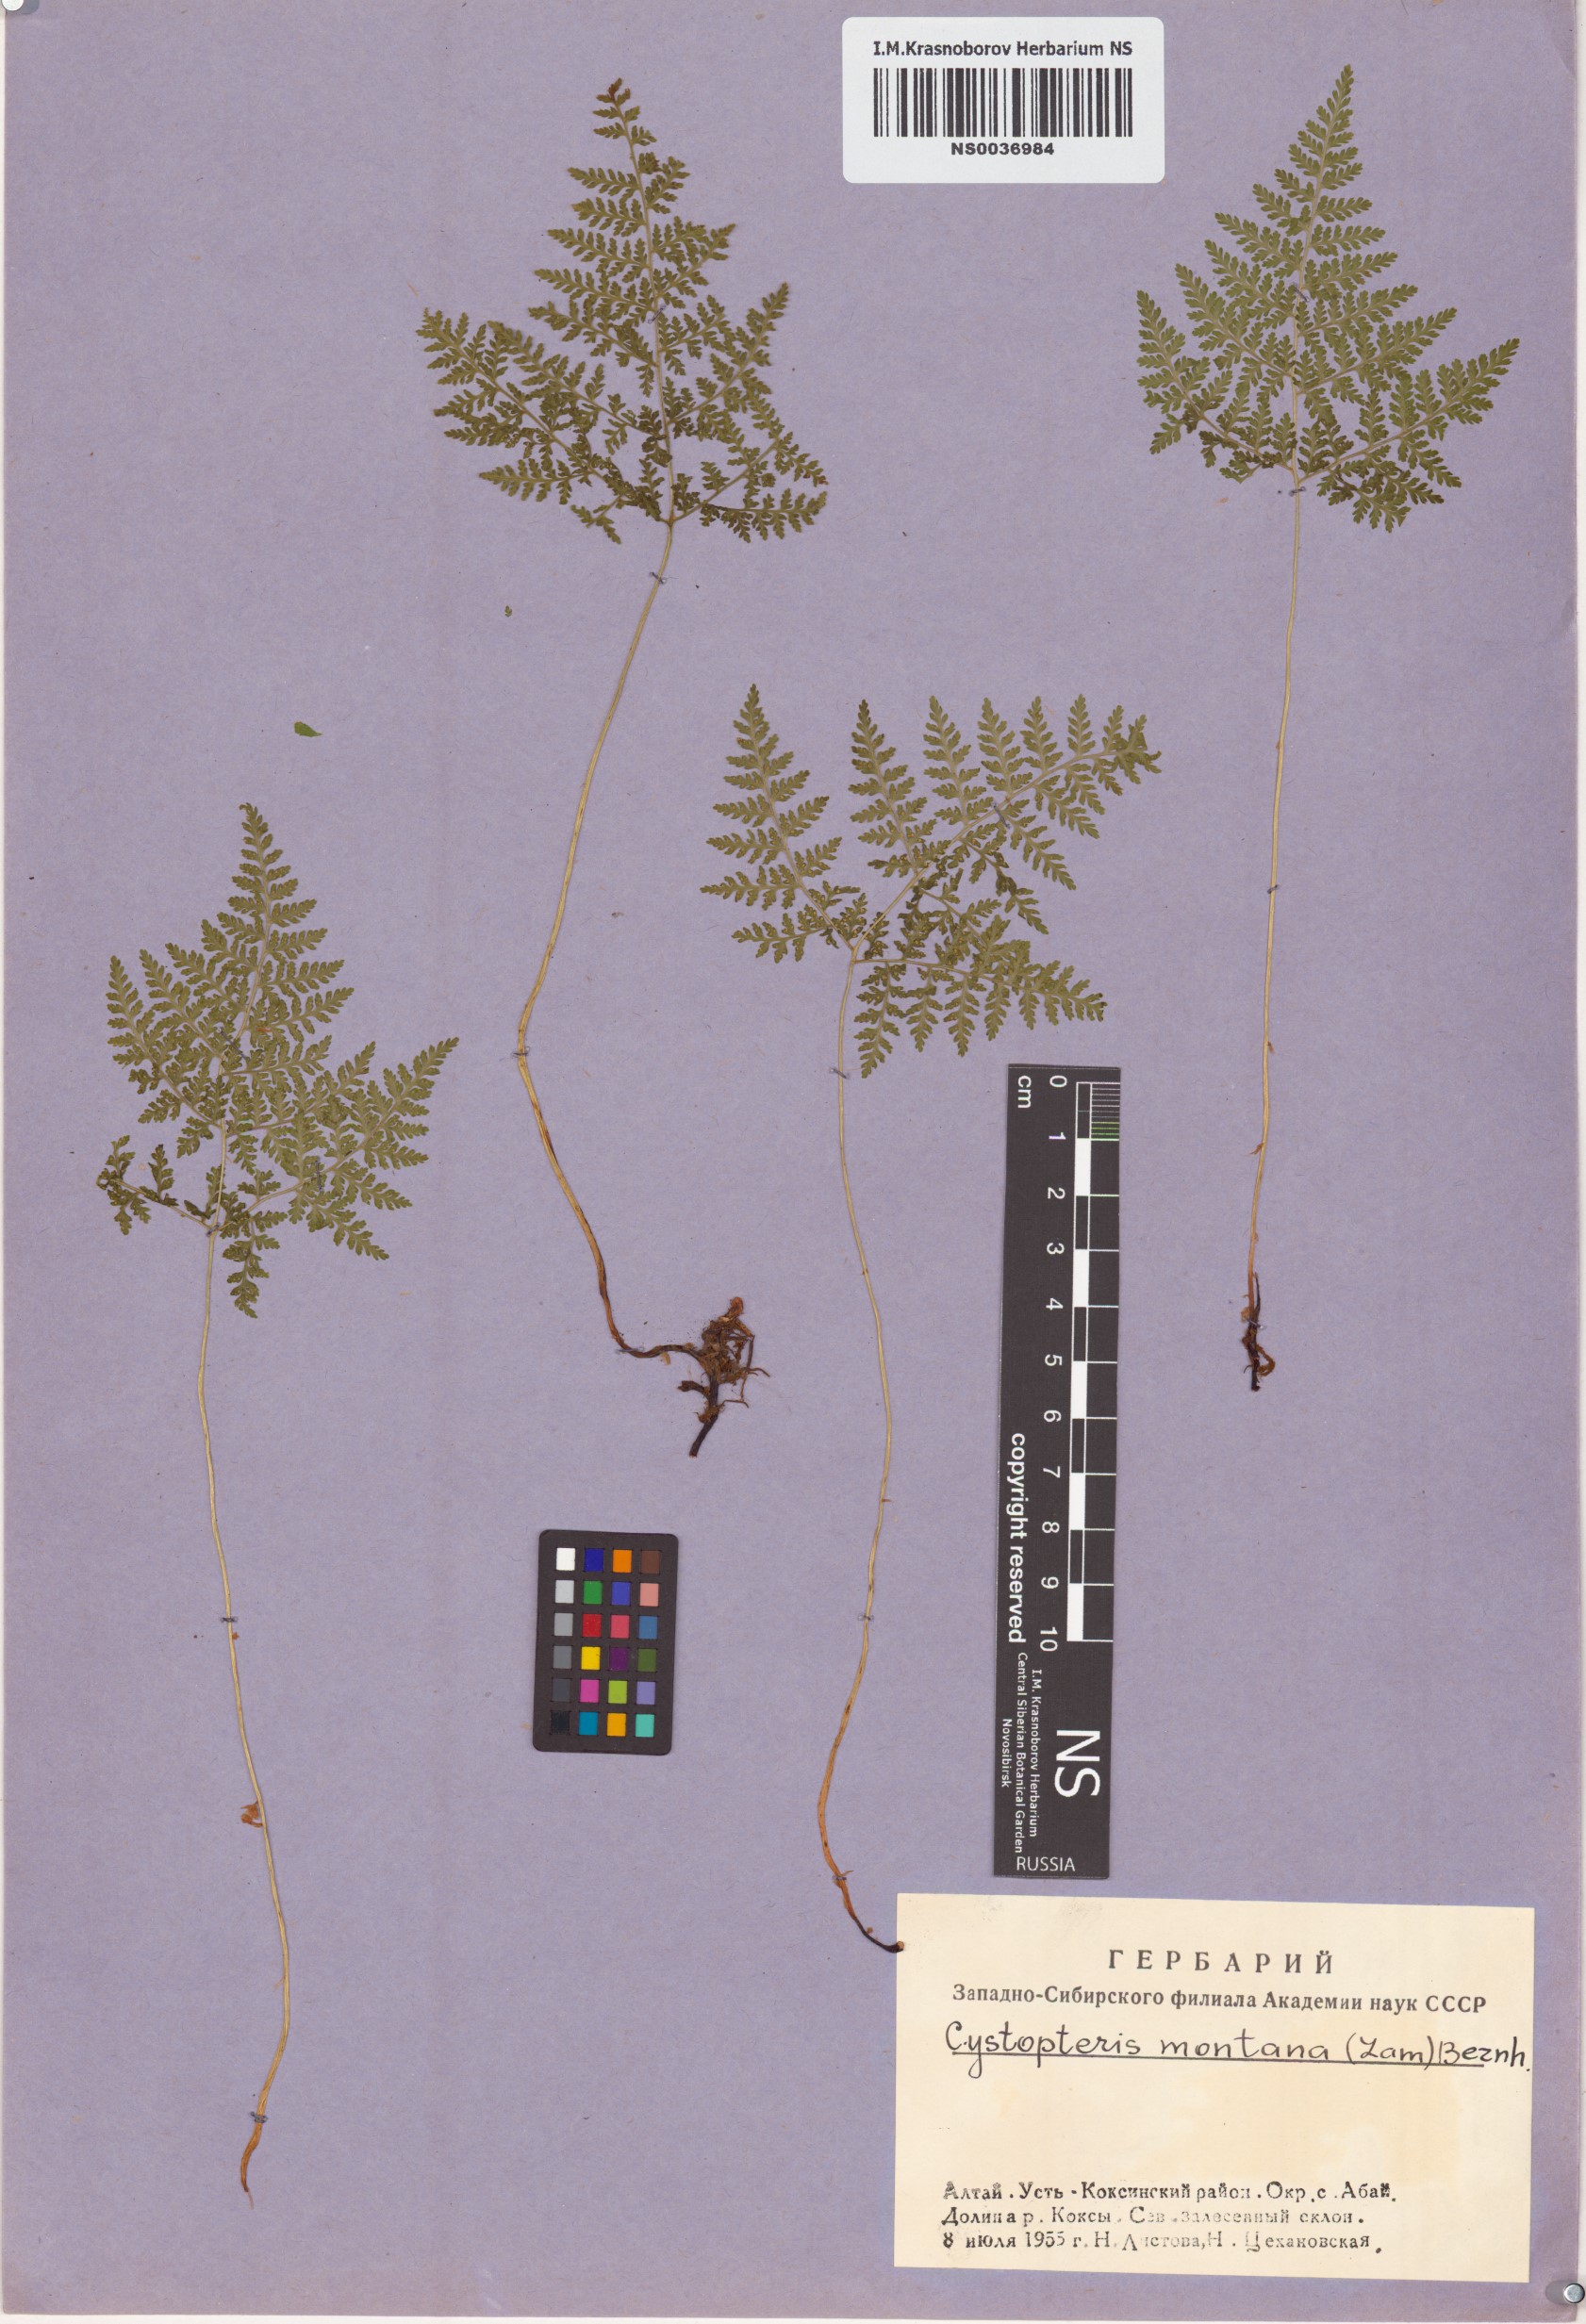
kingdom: Plantae
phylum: Tracheophyta
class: Polypodiopsida
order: Polypodiales
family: Cystopteridaceae
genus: Cystopteris
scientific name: Cystopteris montana
